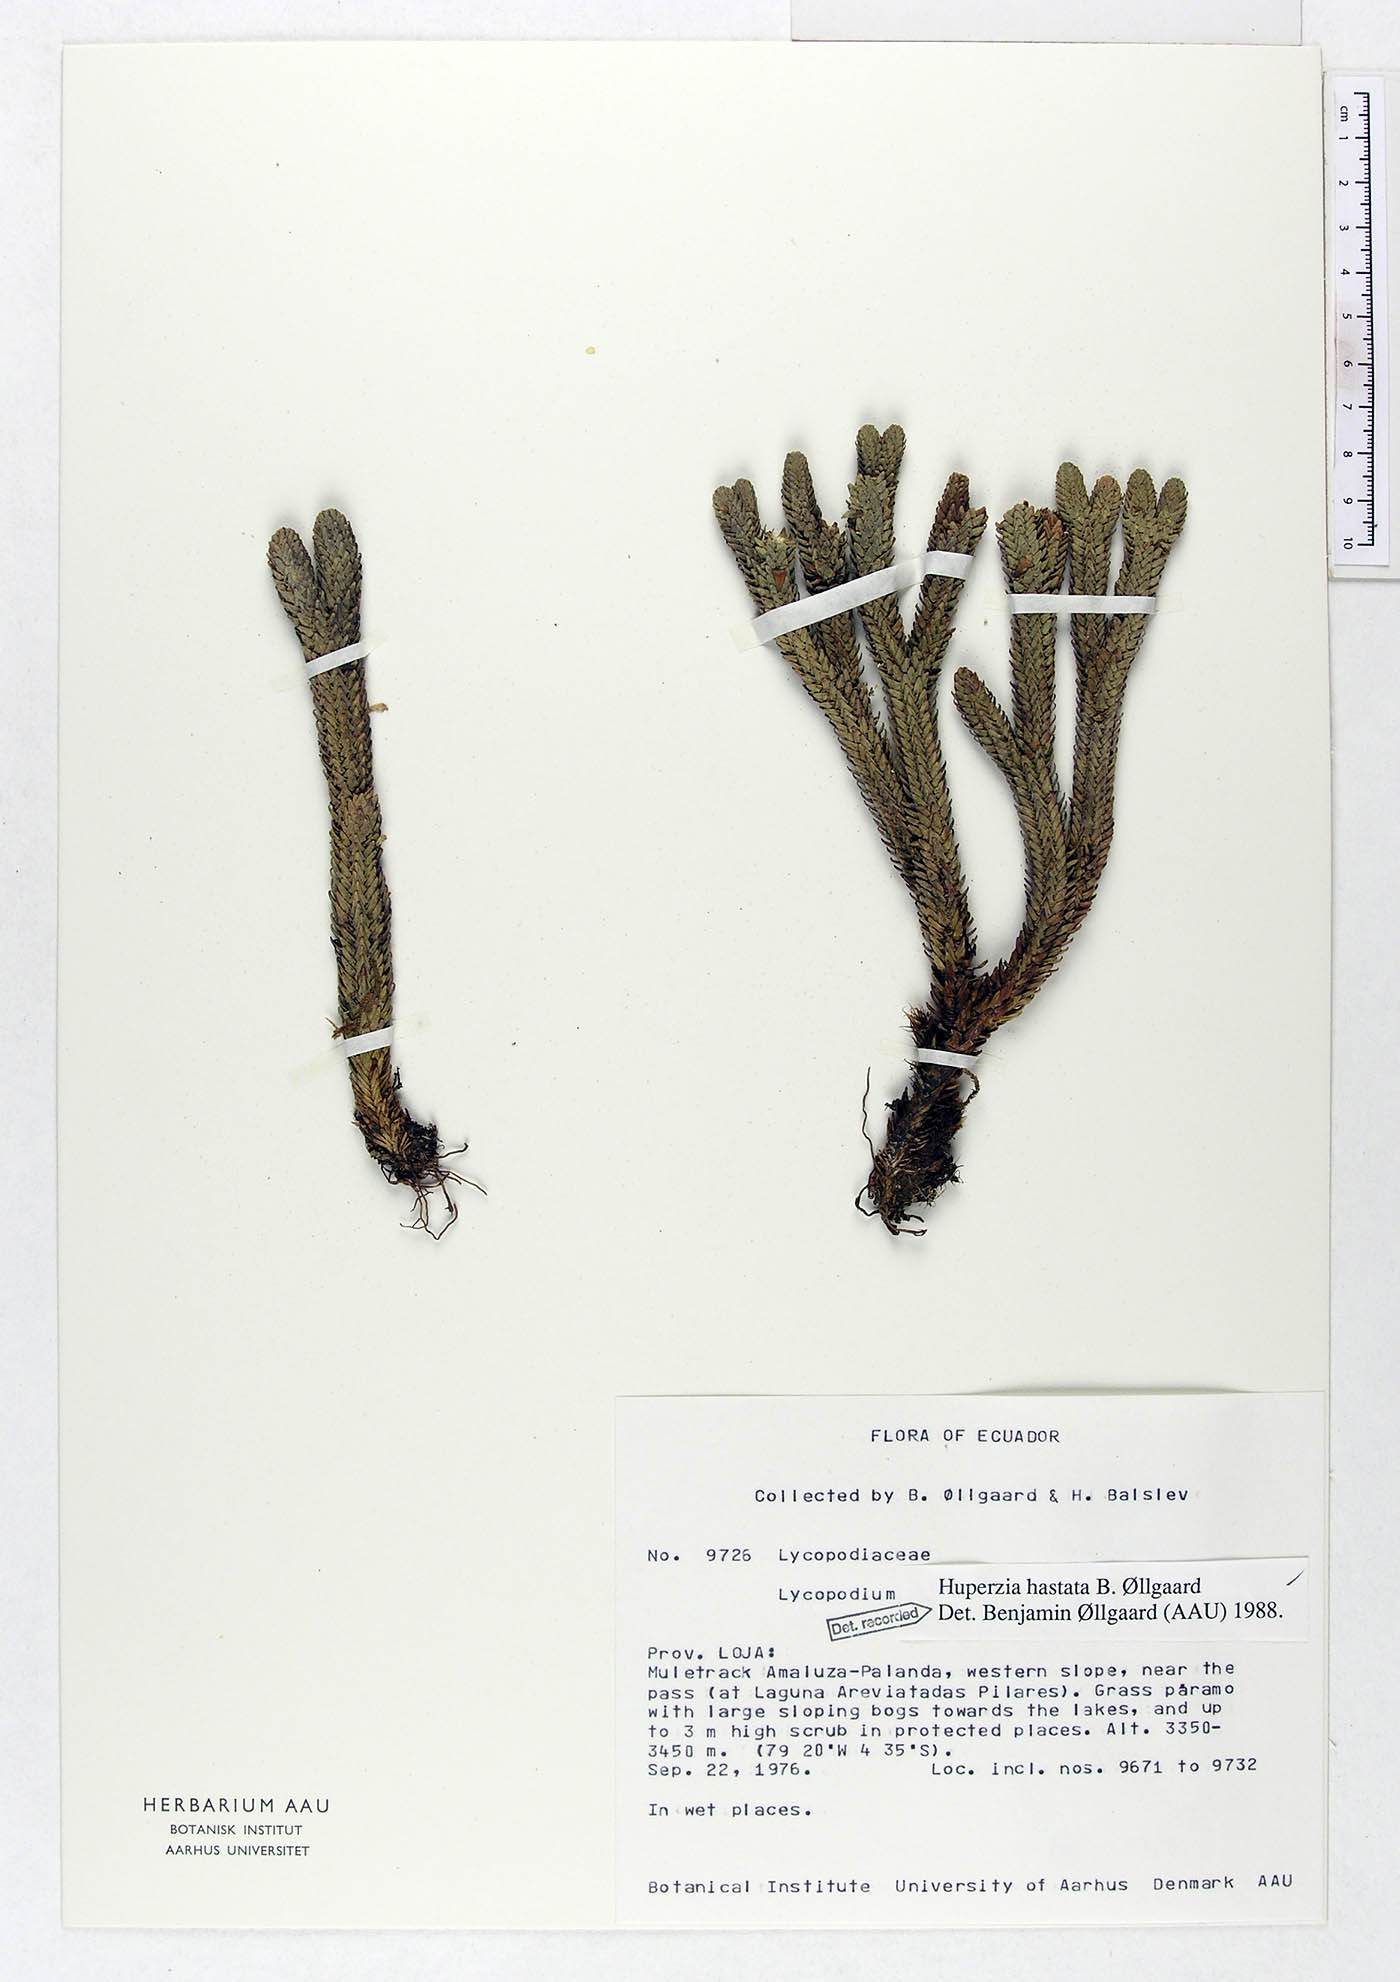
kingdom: Plantae
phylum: Tracheophyta
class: Lycopodiopsida
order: Lycopodiales
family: Lycopodiaceae
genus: Phlegmariurus
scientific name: Phlegmariurus hastatus
